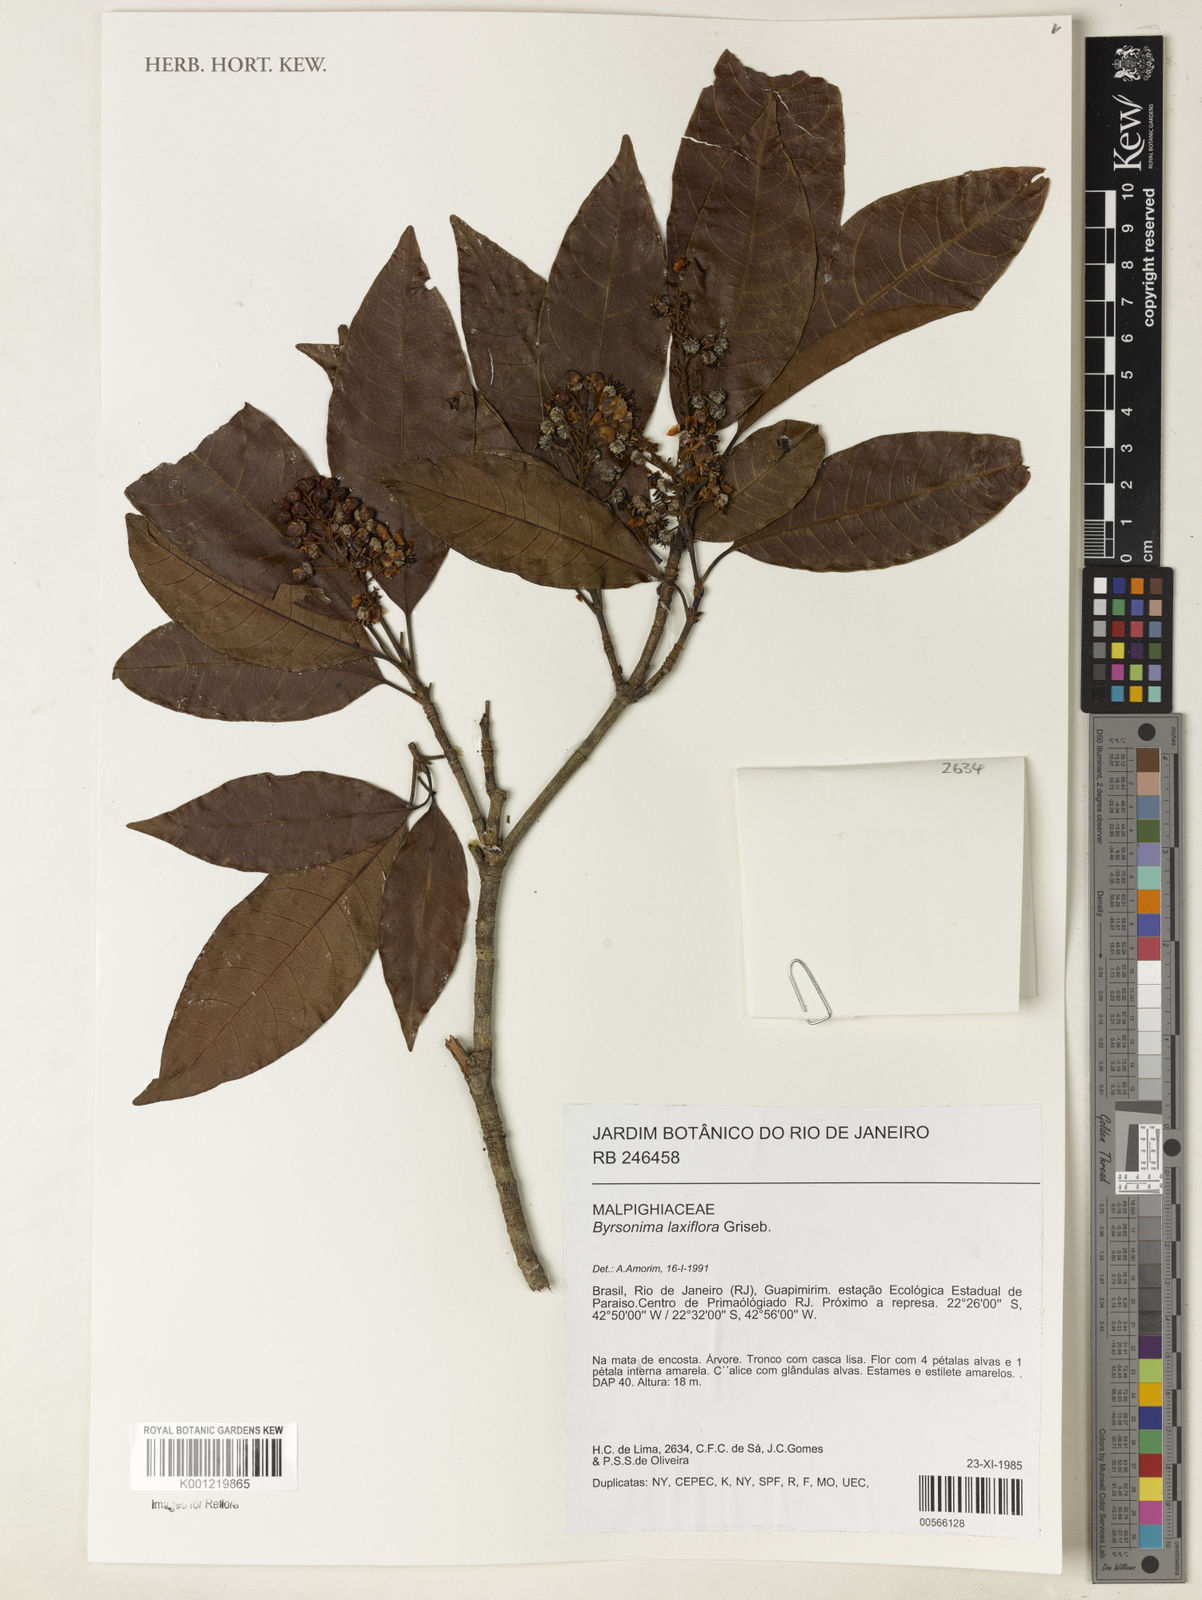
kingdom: Plantae
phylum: Tracheophyta
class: Magnoliopsida
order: Malpighiales
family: Malpighiaceae
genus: Byrsonima
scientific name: Byrsonima laxiflora
